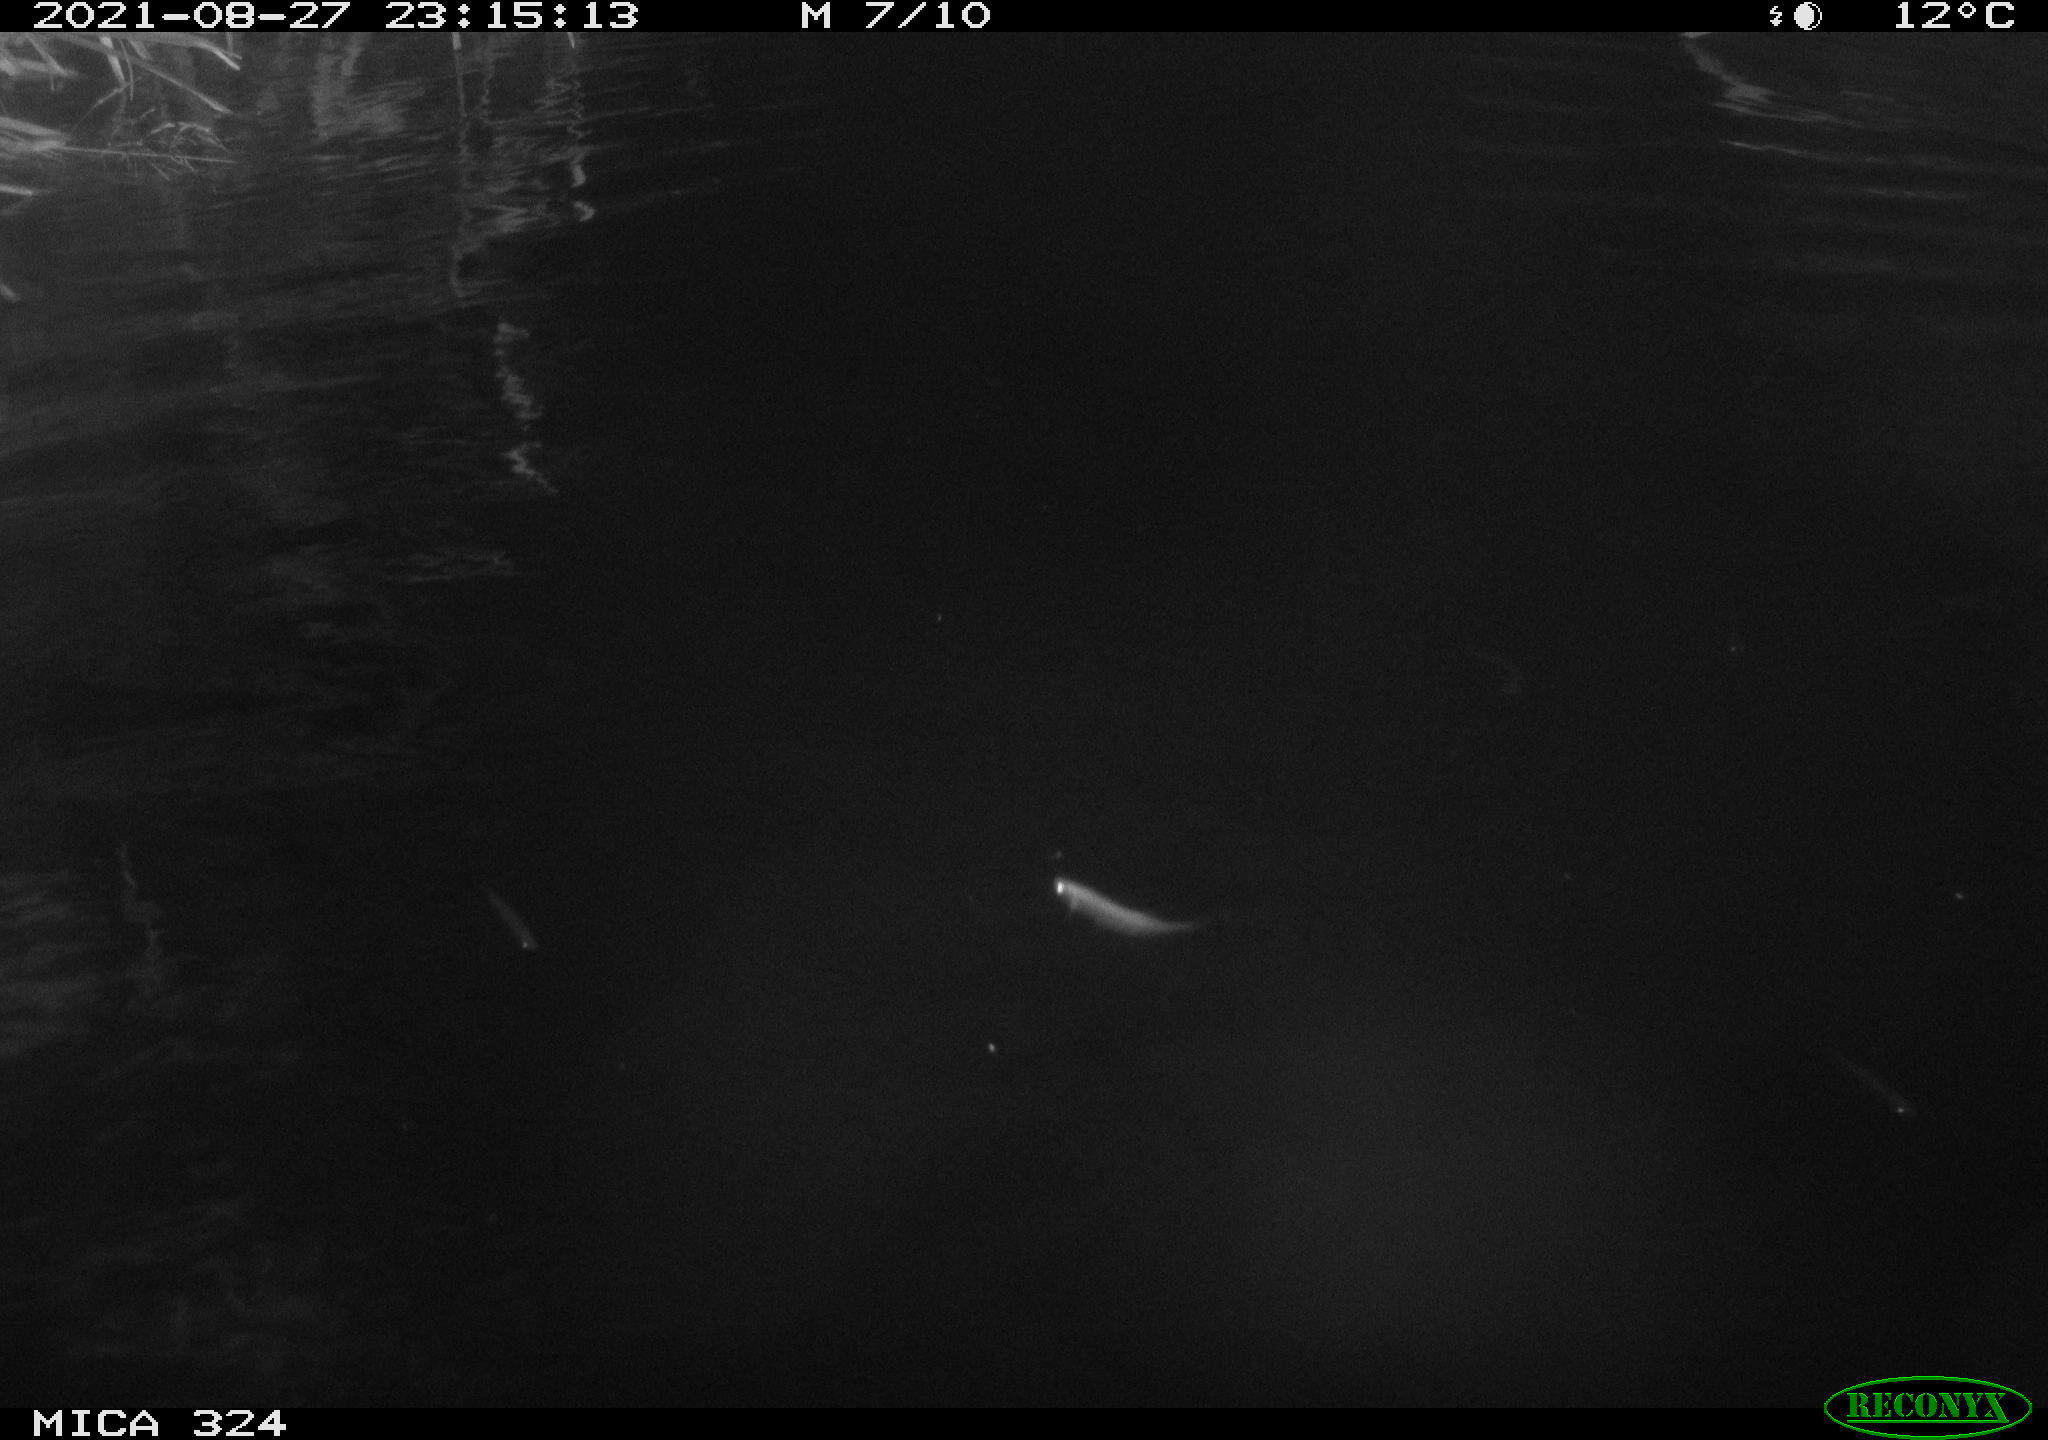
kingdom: Animalia
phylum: Chordata
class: Mammalia
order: Rodentia
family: Cricetidae
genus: Ondatra
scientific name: Ondatra zibethicus
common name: Muskrat
